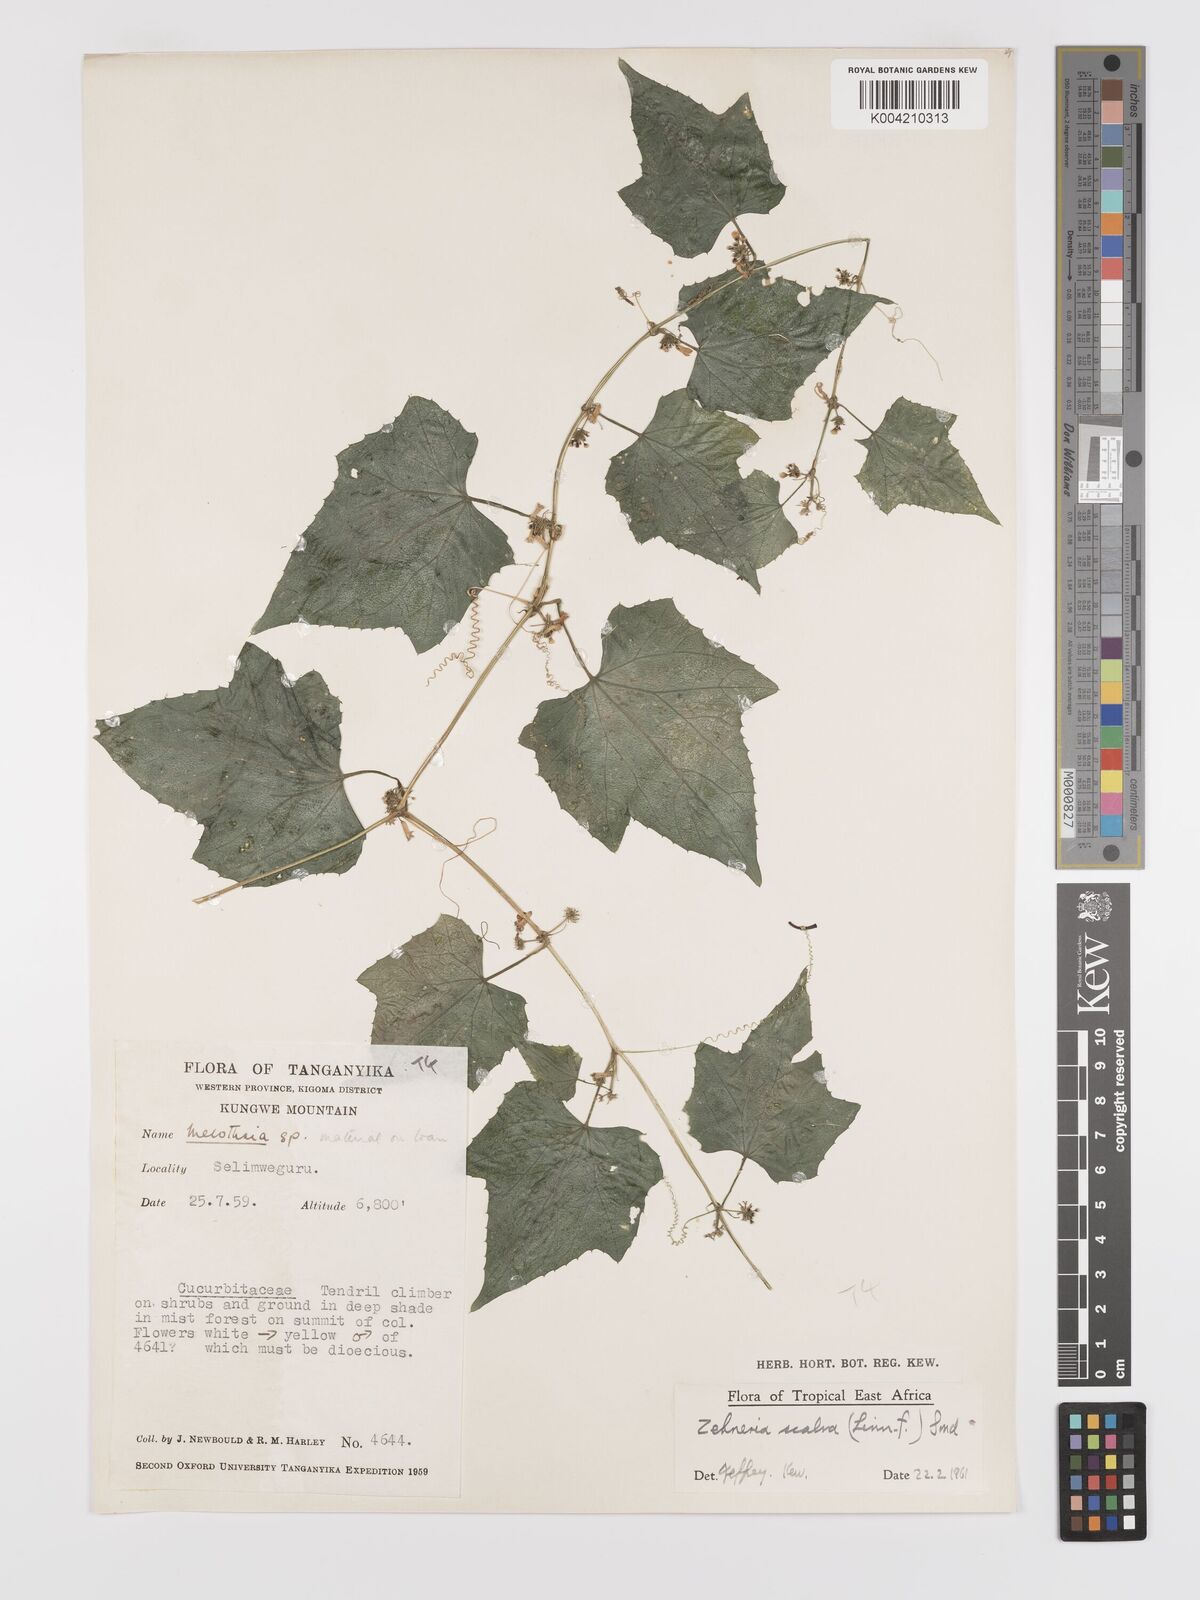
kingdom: Plantae
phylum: Tracheophyta
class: Magnoliopsida
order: Cucurbitales
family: Cucurbitaceae
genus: Zehneria
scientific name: Zehneria scabra
